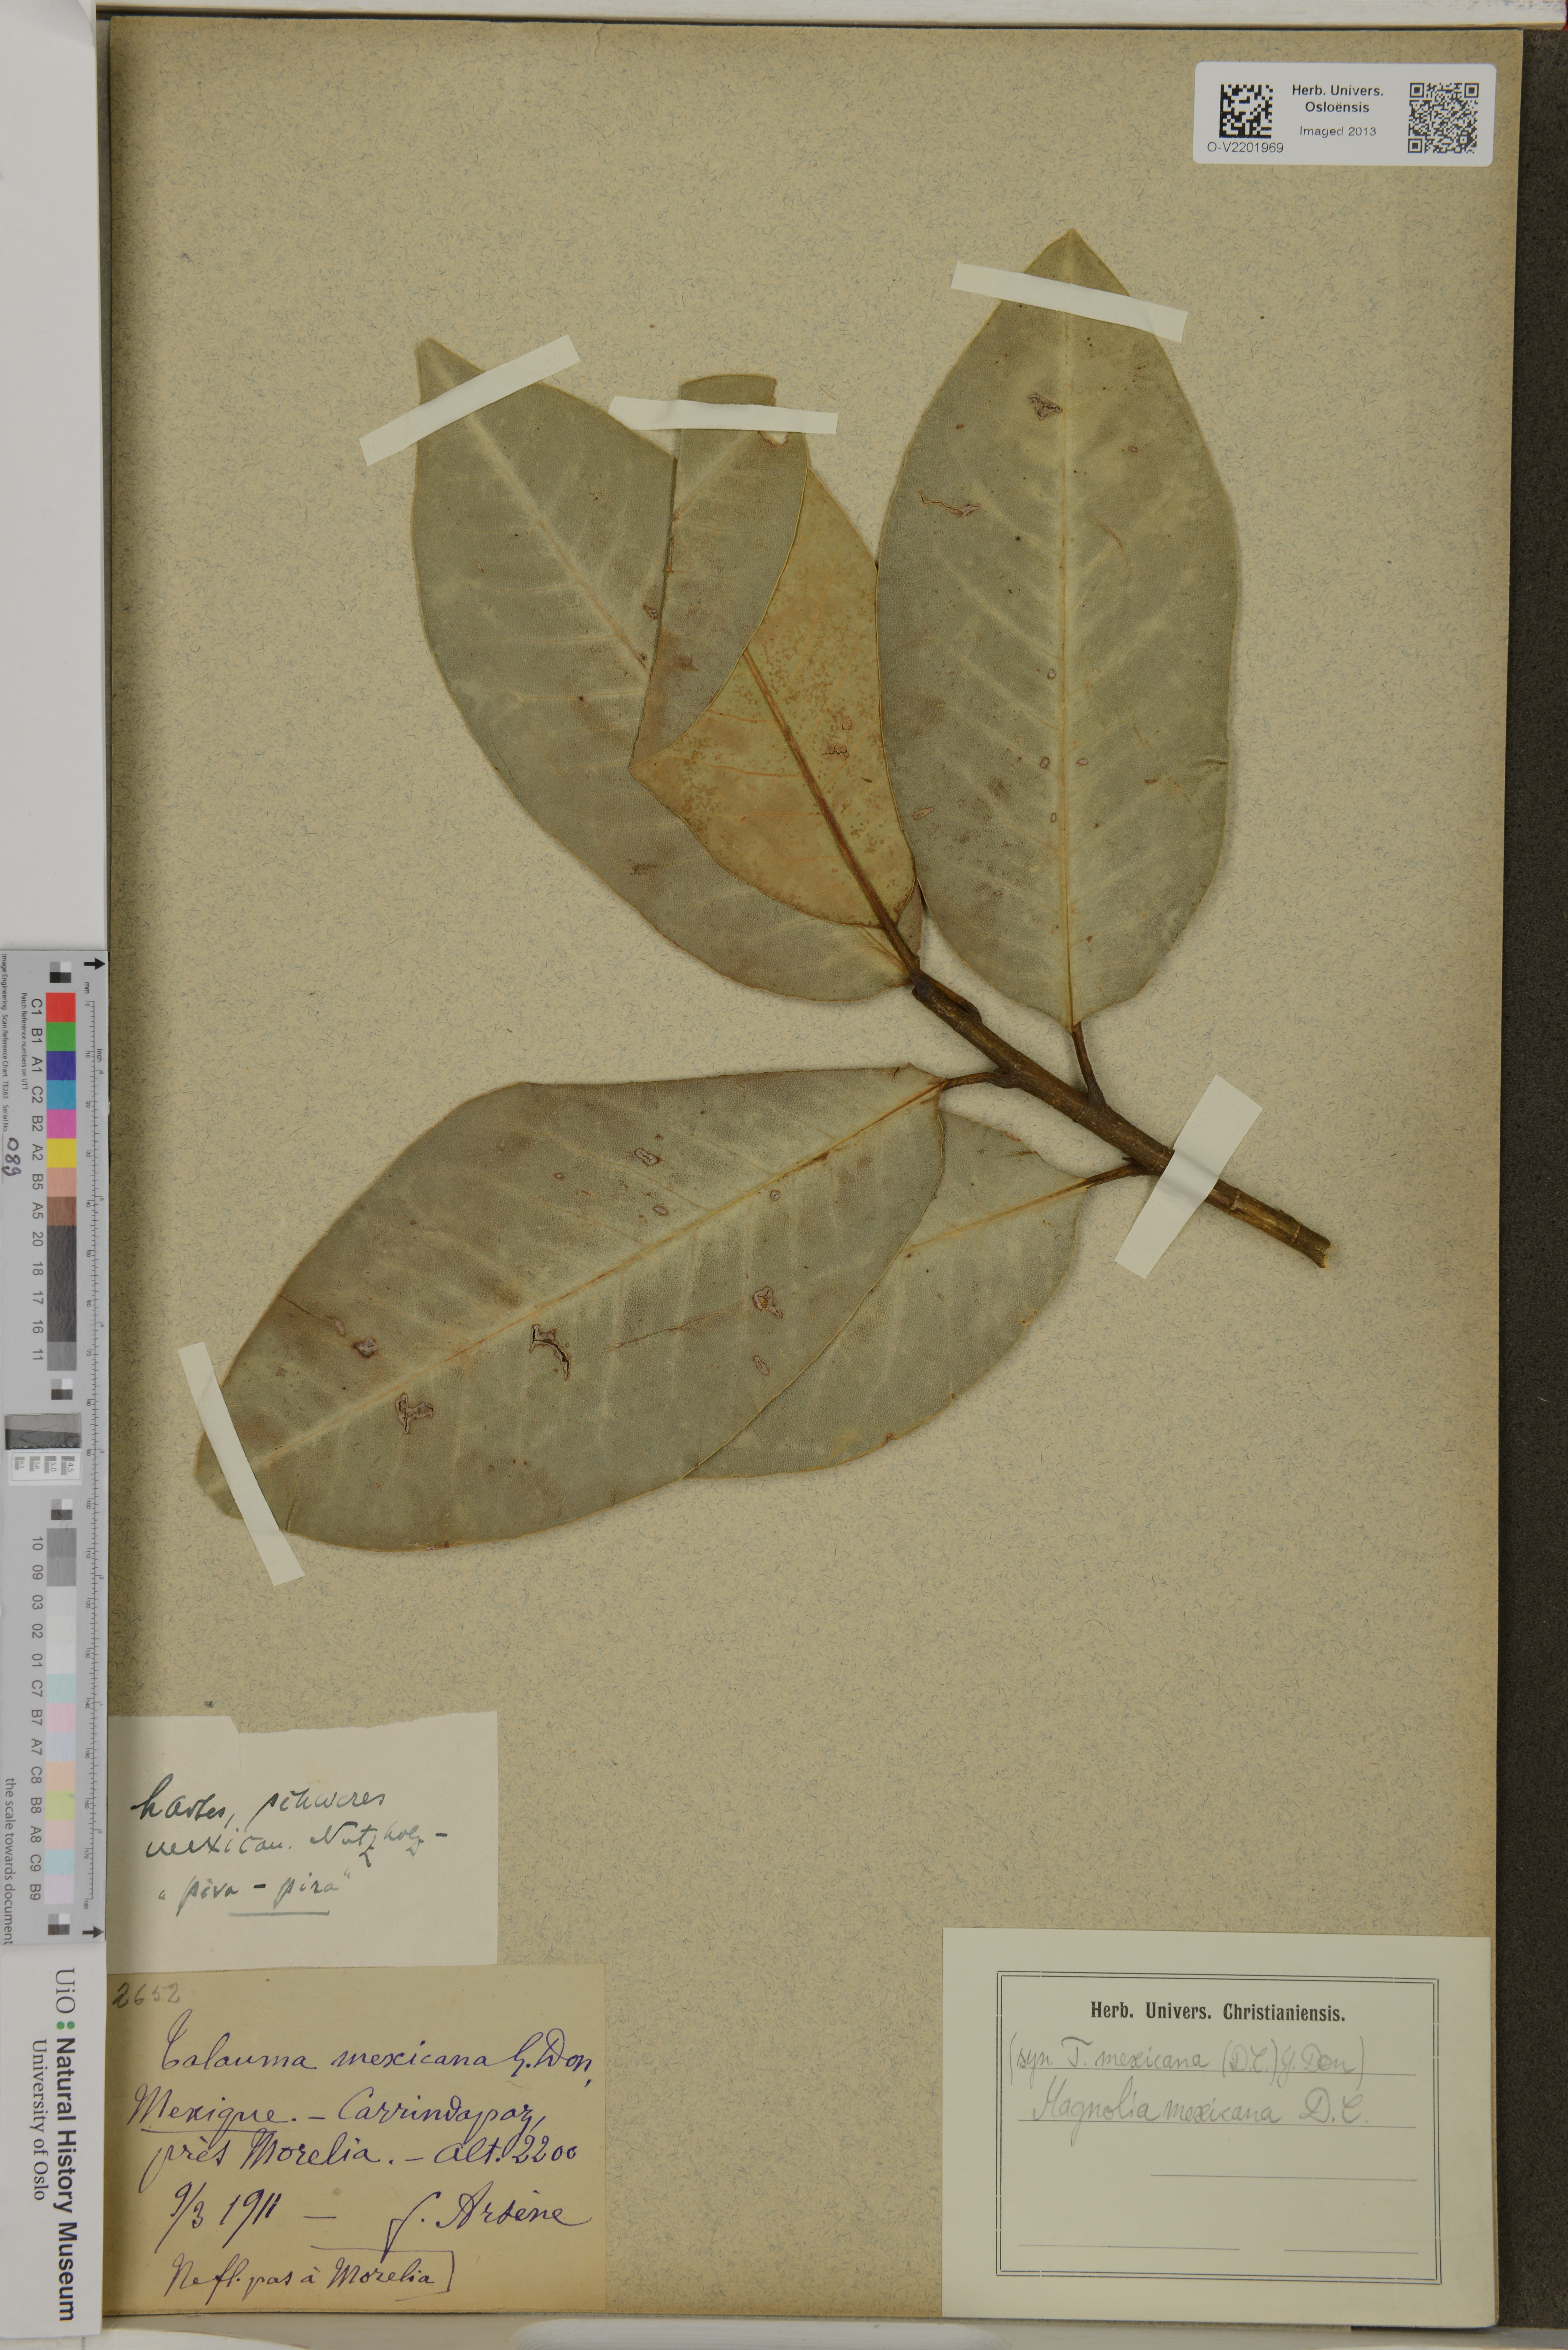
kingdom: Plantae
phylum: Tracheophyta
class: Magnoliopsida
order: Magnoliales
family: Magnoliaceae
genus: Magnolia
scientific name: Magnolia mexicana
